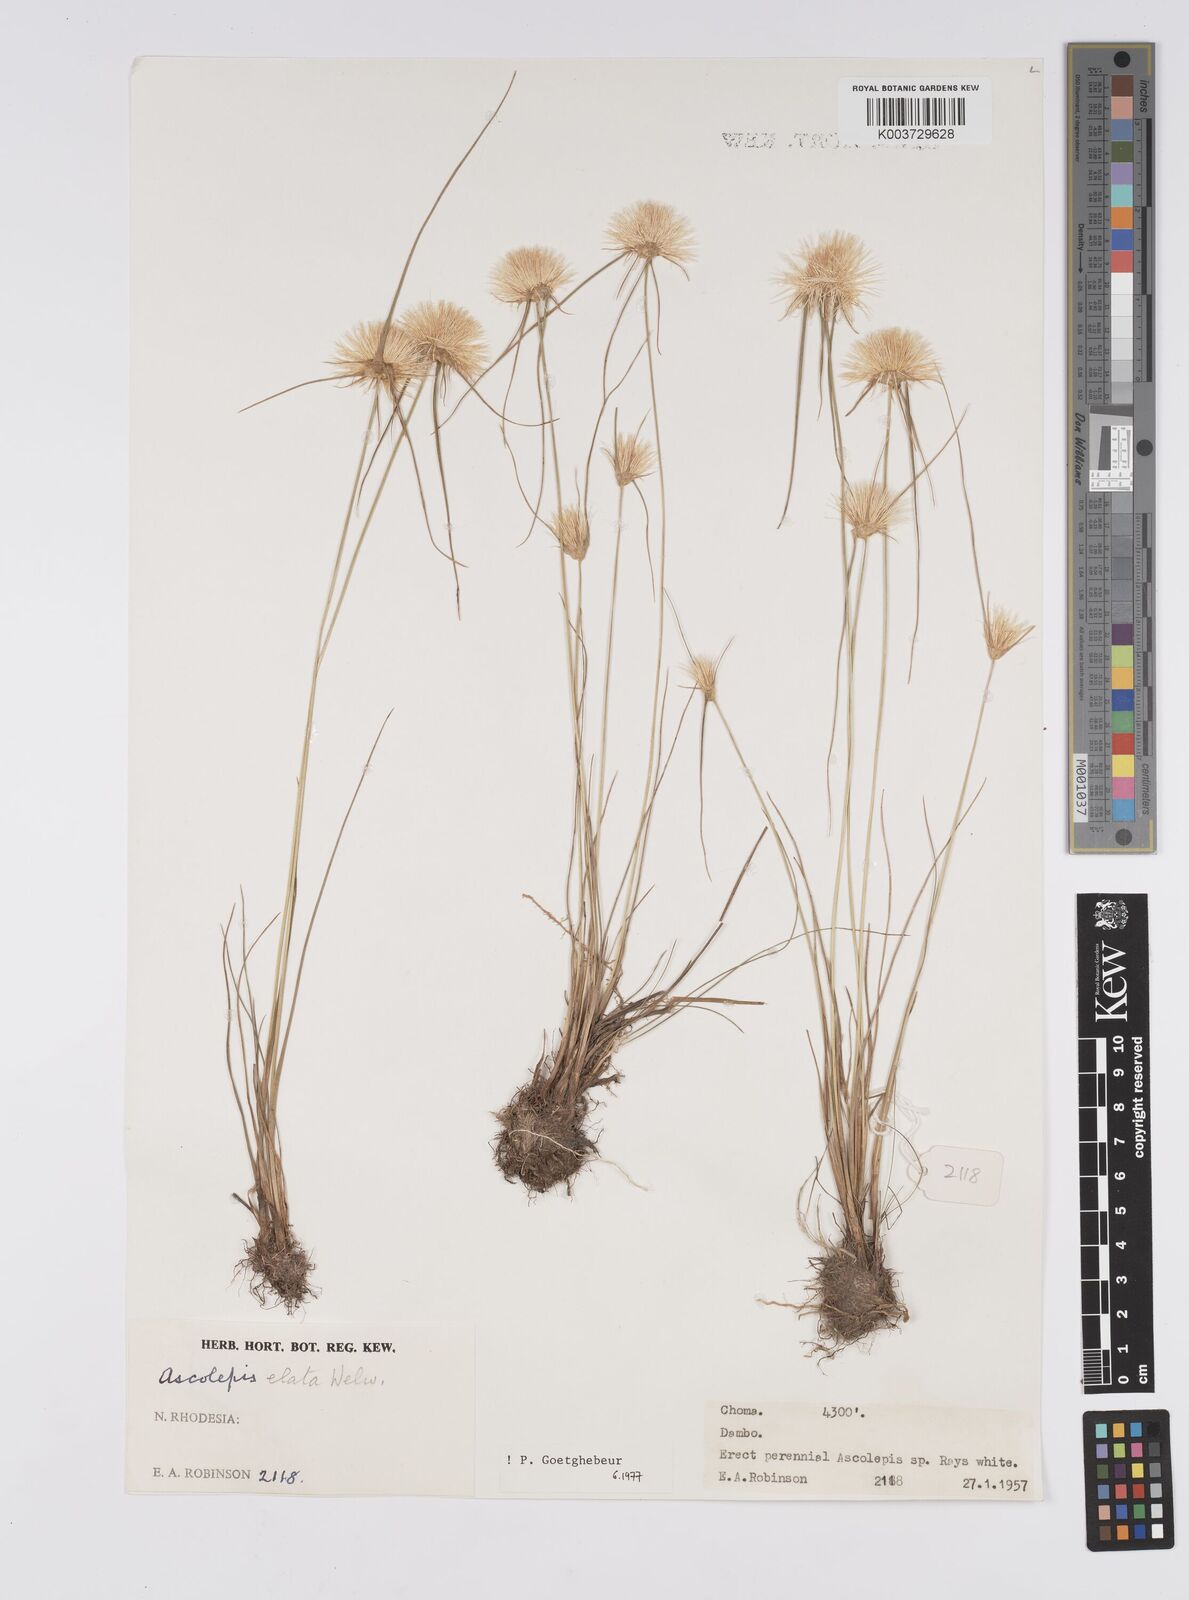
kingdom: Plantae
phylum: Tracheophyta
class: Liliopsida
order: Poales
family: Cyperaceae
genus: Cyperus
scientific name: Cyperus
